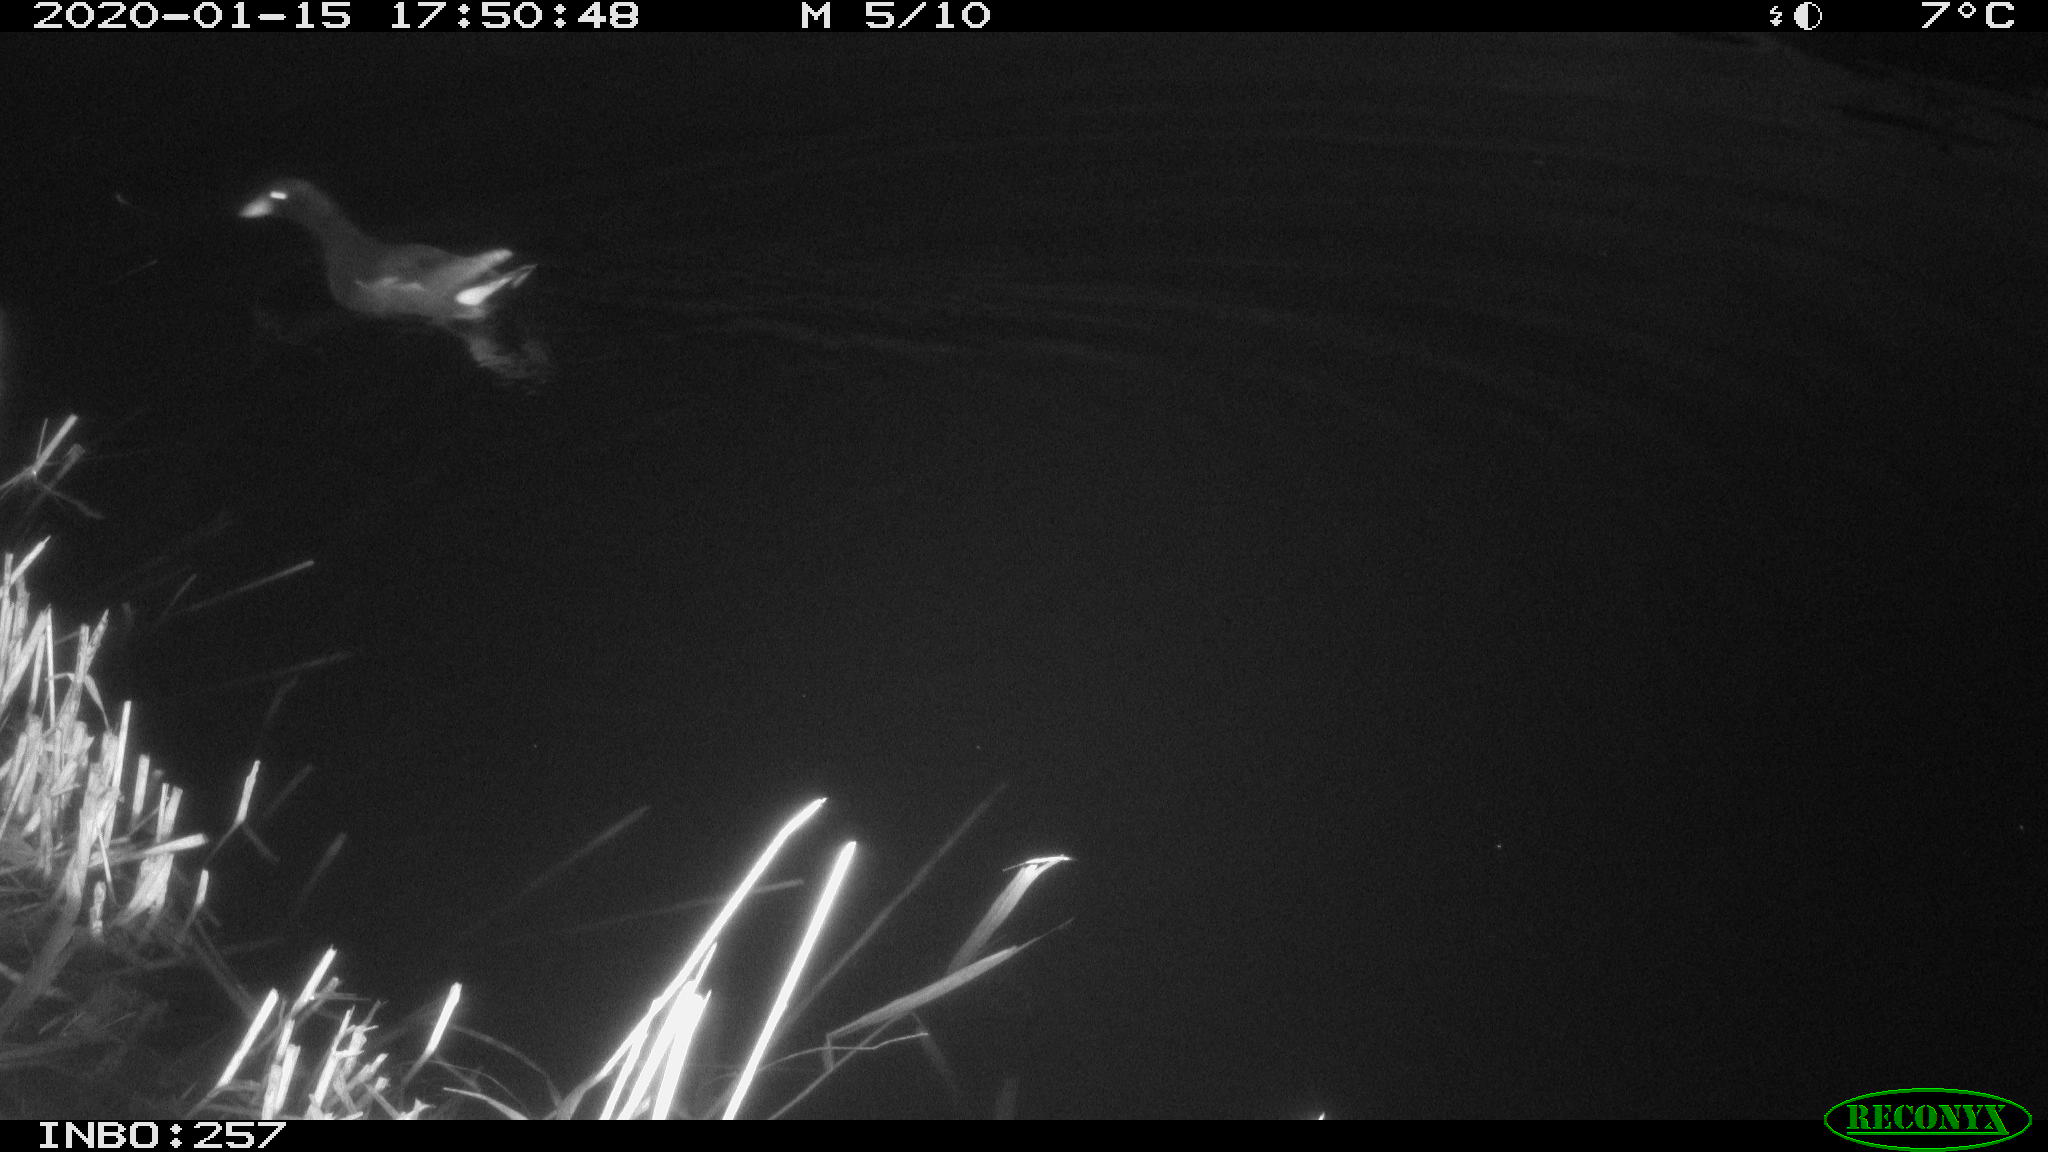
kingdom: Animalia
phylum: Chordata
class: Aves
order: Gruiformes
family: Rallidae
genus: Gallinula
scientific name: Gallinula chloropus
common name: Common moorhen
